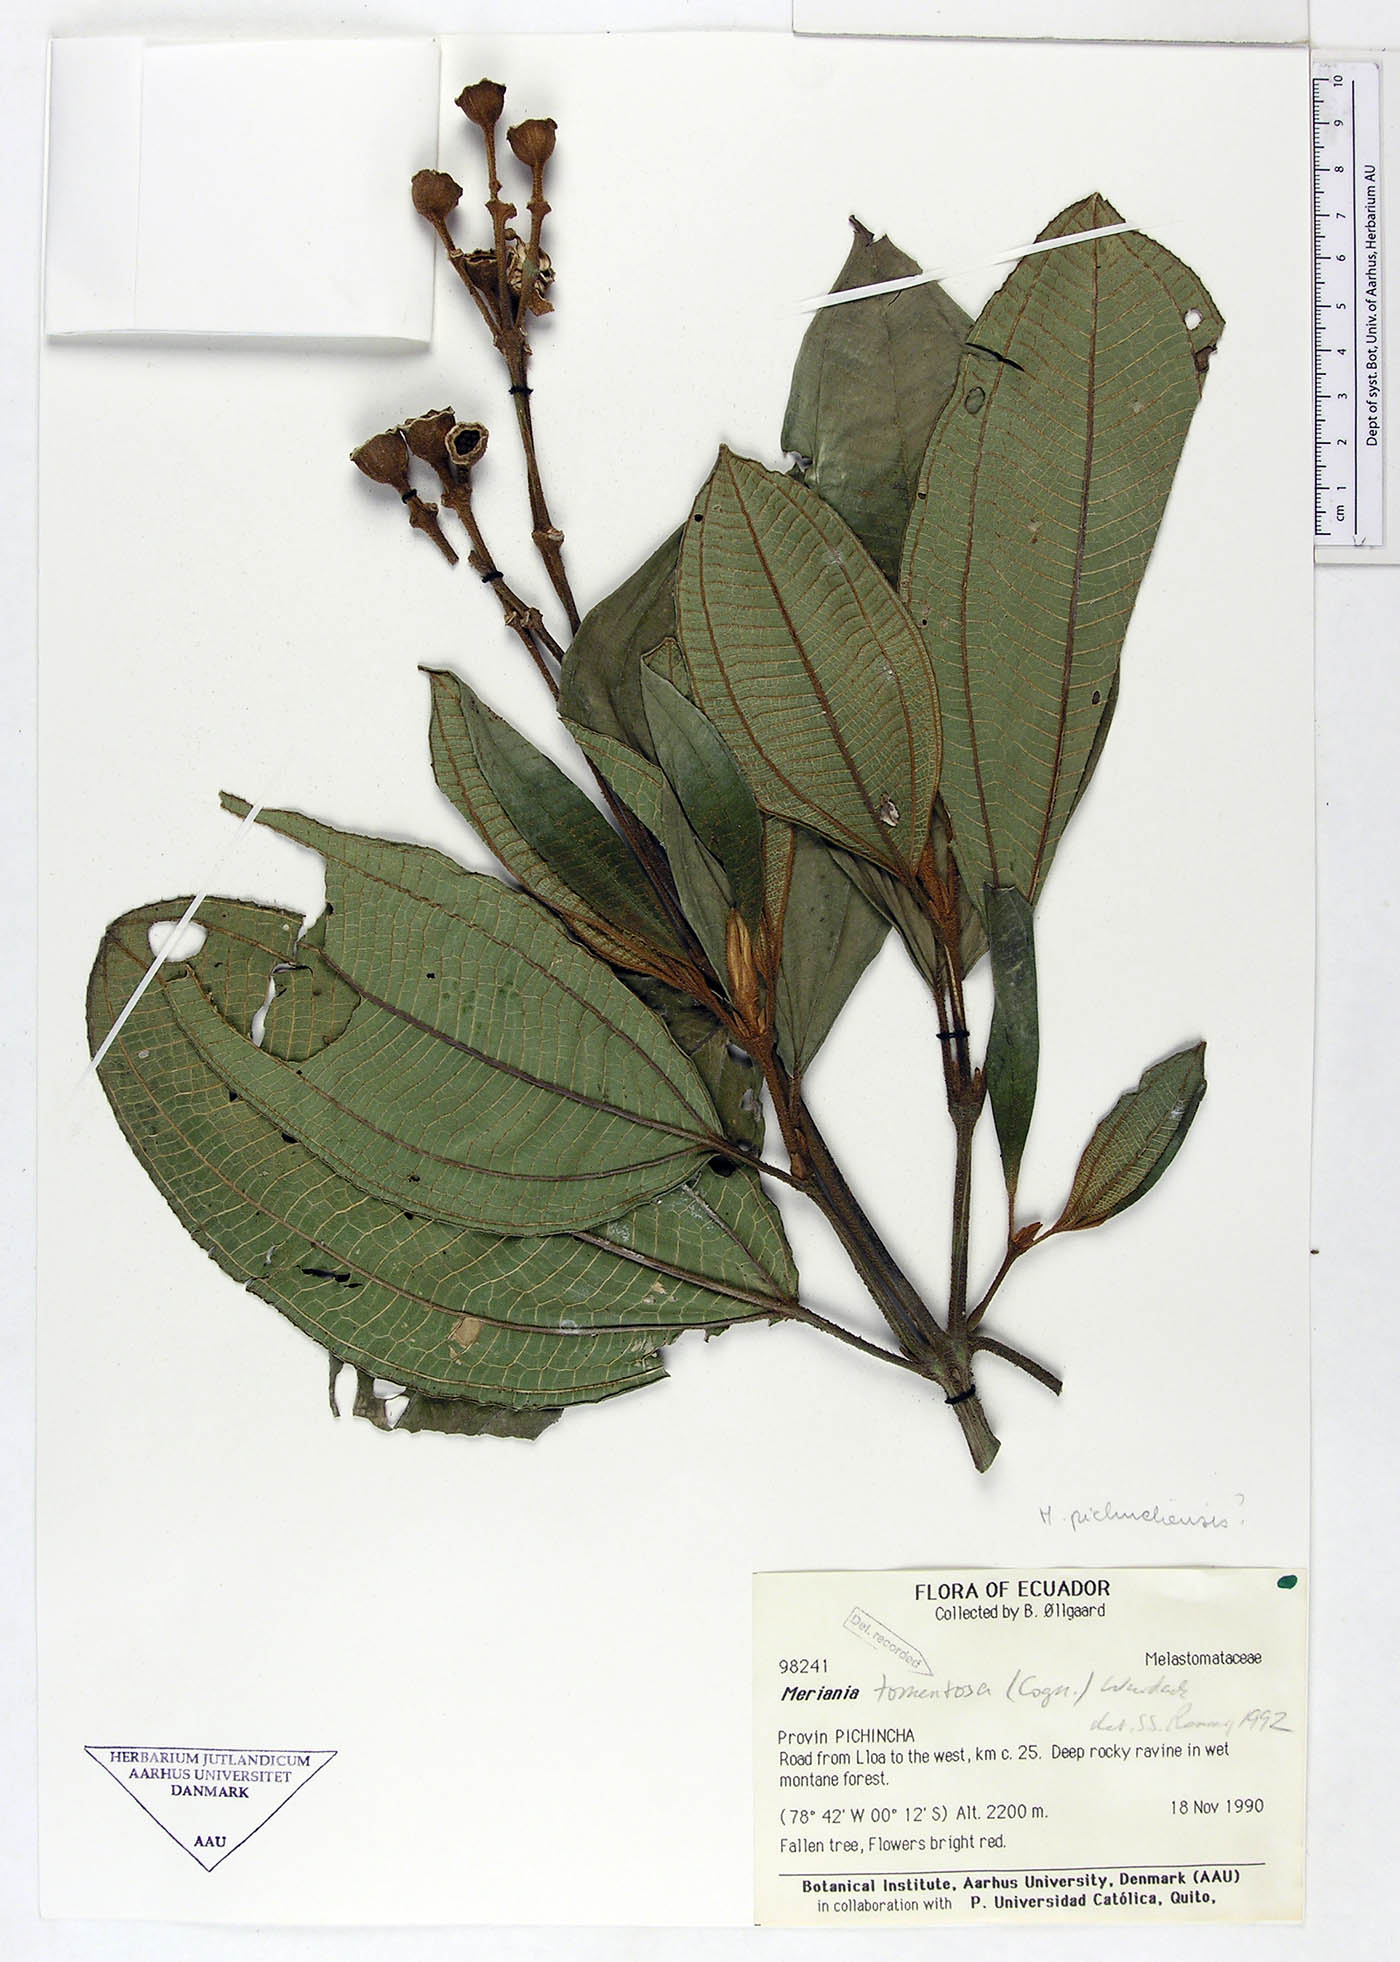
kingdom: Plantae
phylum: Tracheophyta
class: Magnoliopsida
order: Myrtales
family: Melastomataceae
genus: Meriania
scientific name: Meriania tomentosa
